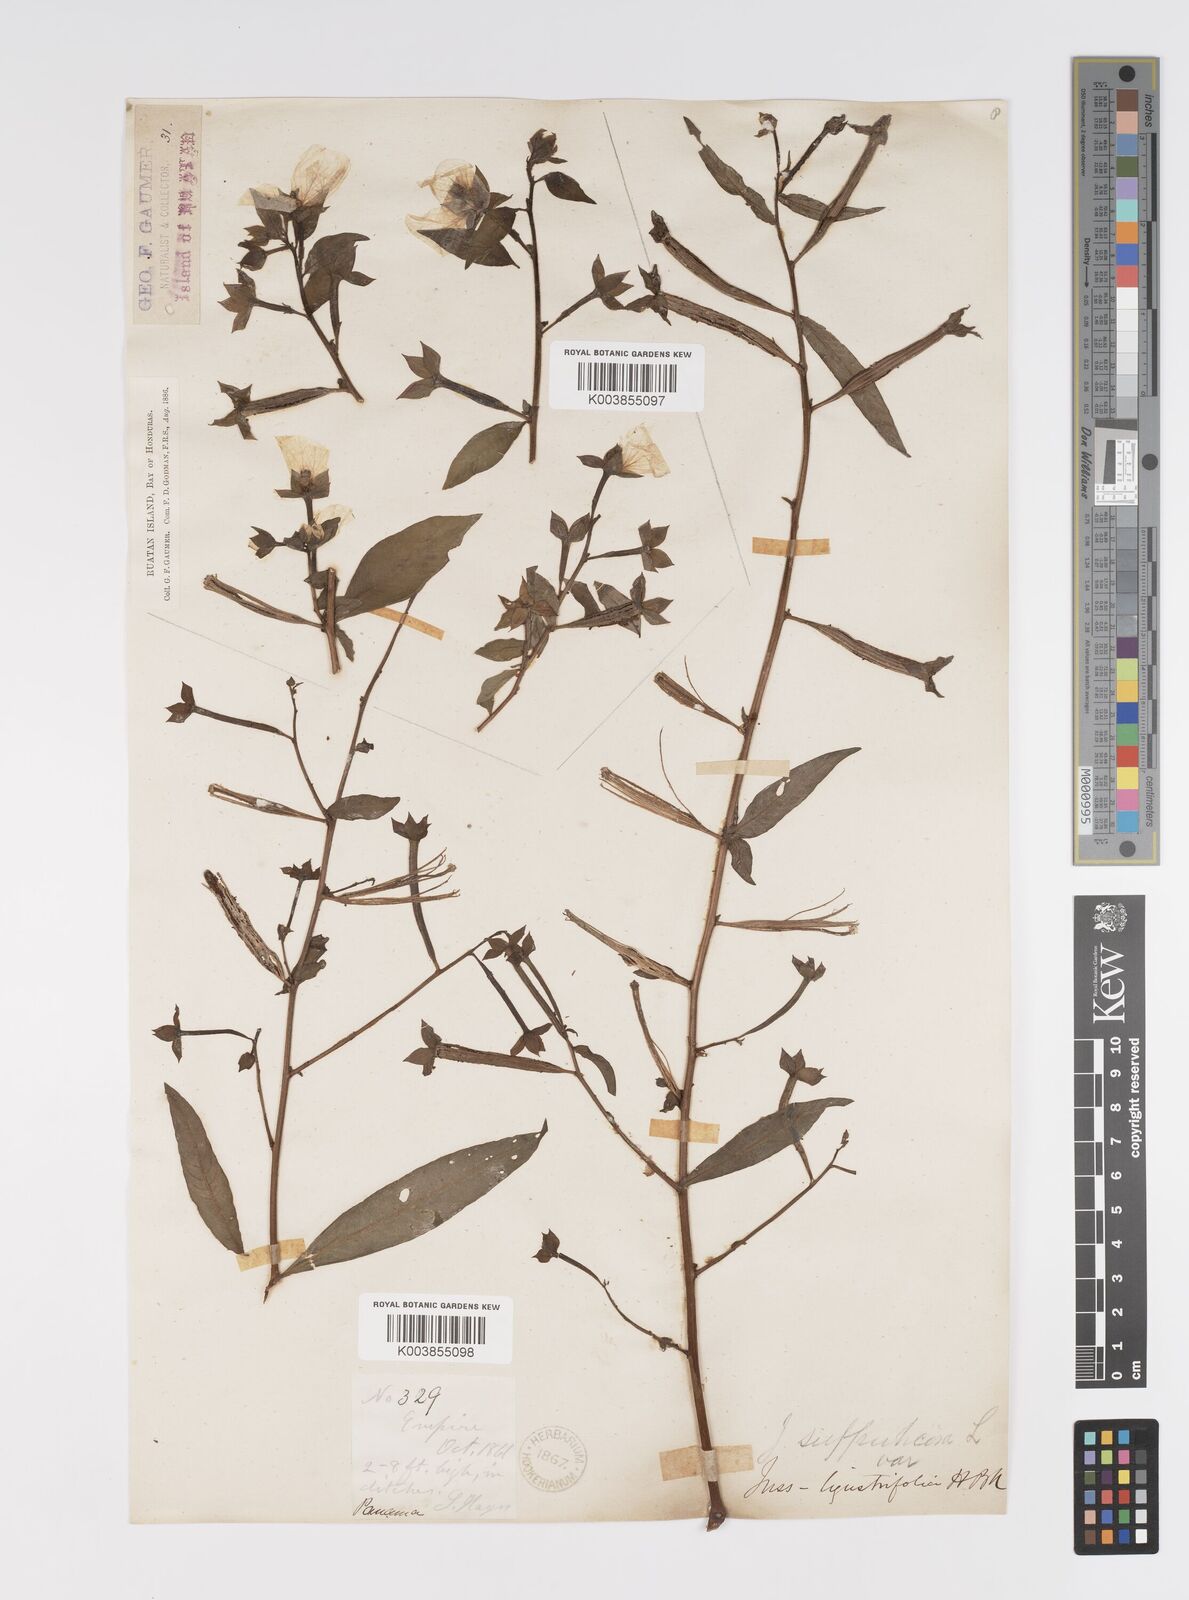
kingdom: Plantae
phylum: Tracheophyta
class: Magnoliopsida
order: Myrtales
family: Onagraceae
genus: Ludwigia
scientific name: Ludwigia octovalvis
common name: Water-primrose
